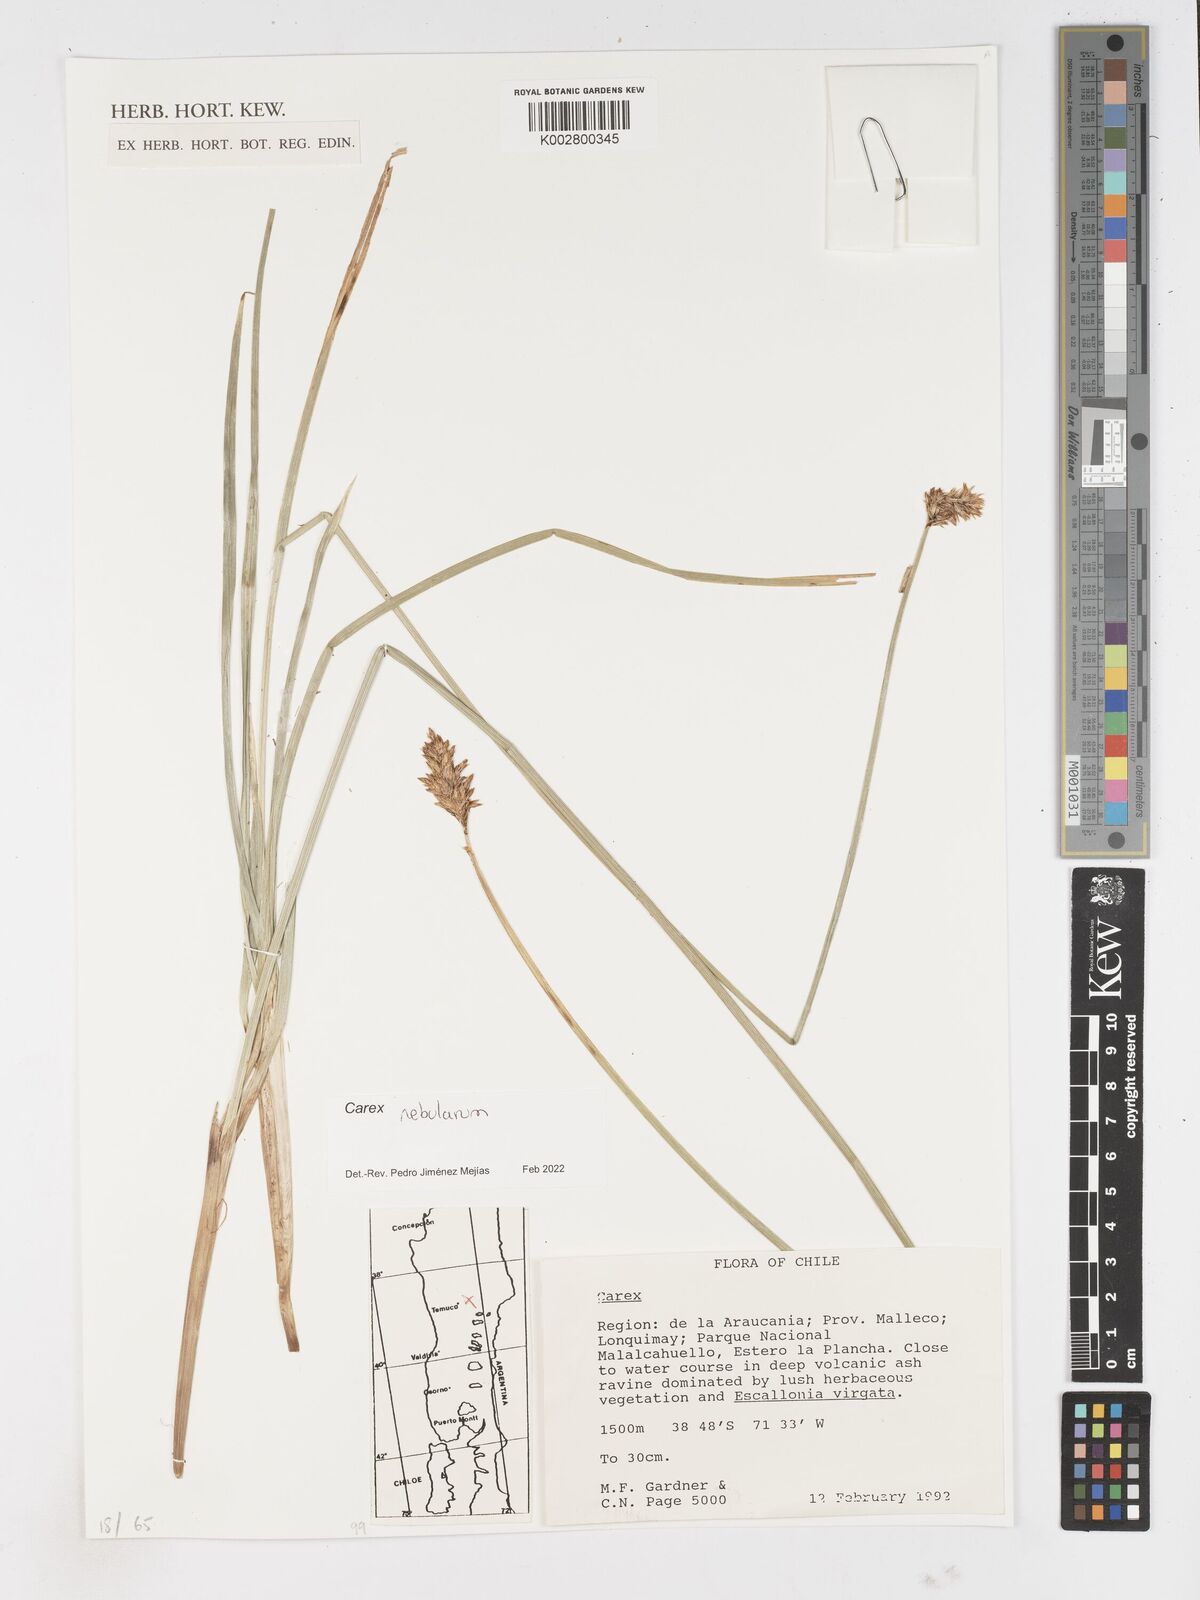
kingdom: Plantae
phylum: Tracheophyta
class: Liliopsida
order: Poales
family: Cyperaceae
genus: Carex
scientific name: Carex nebularum
